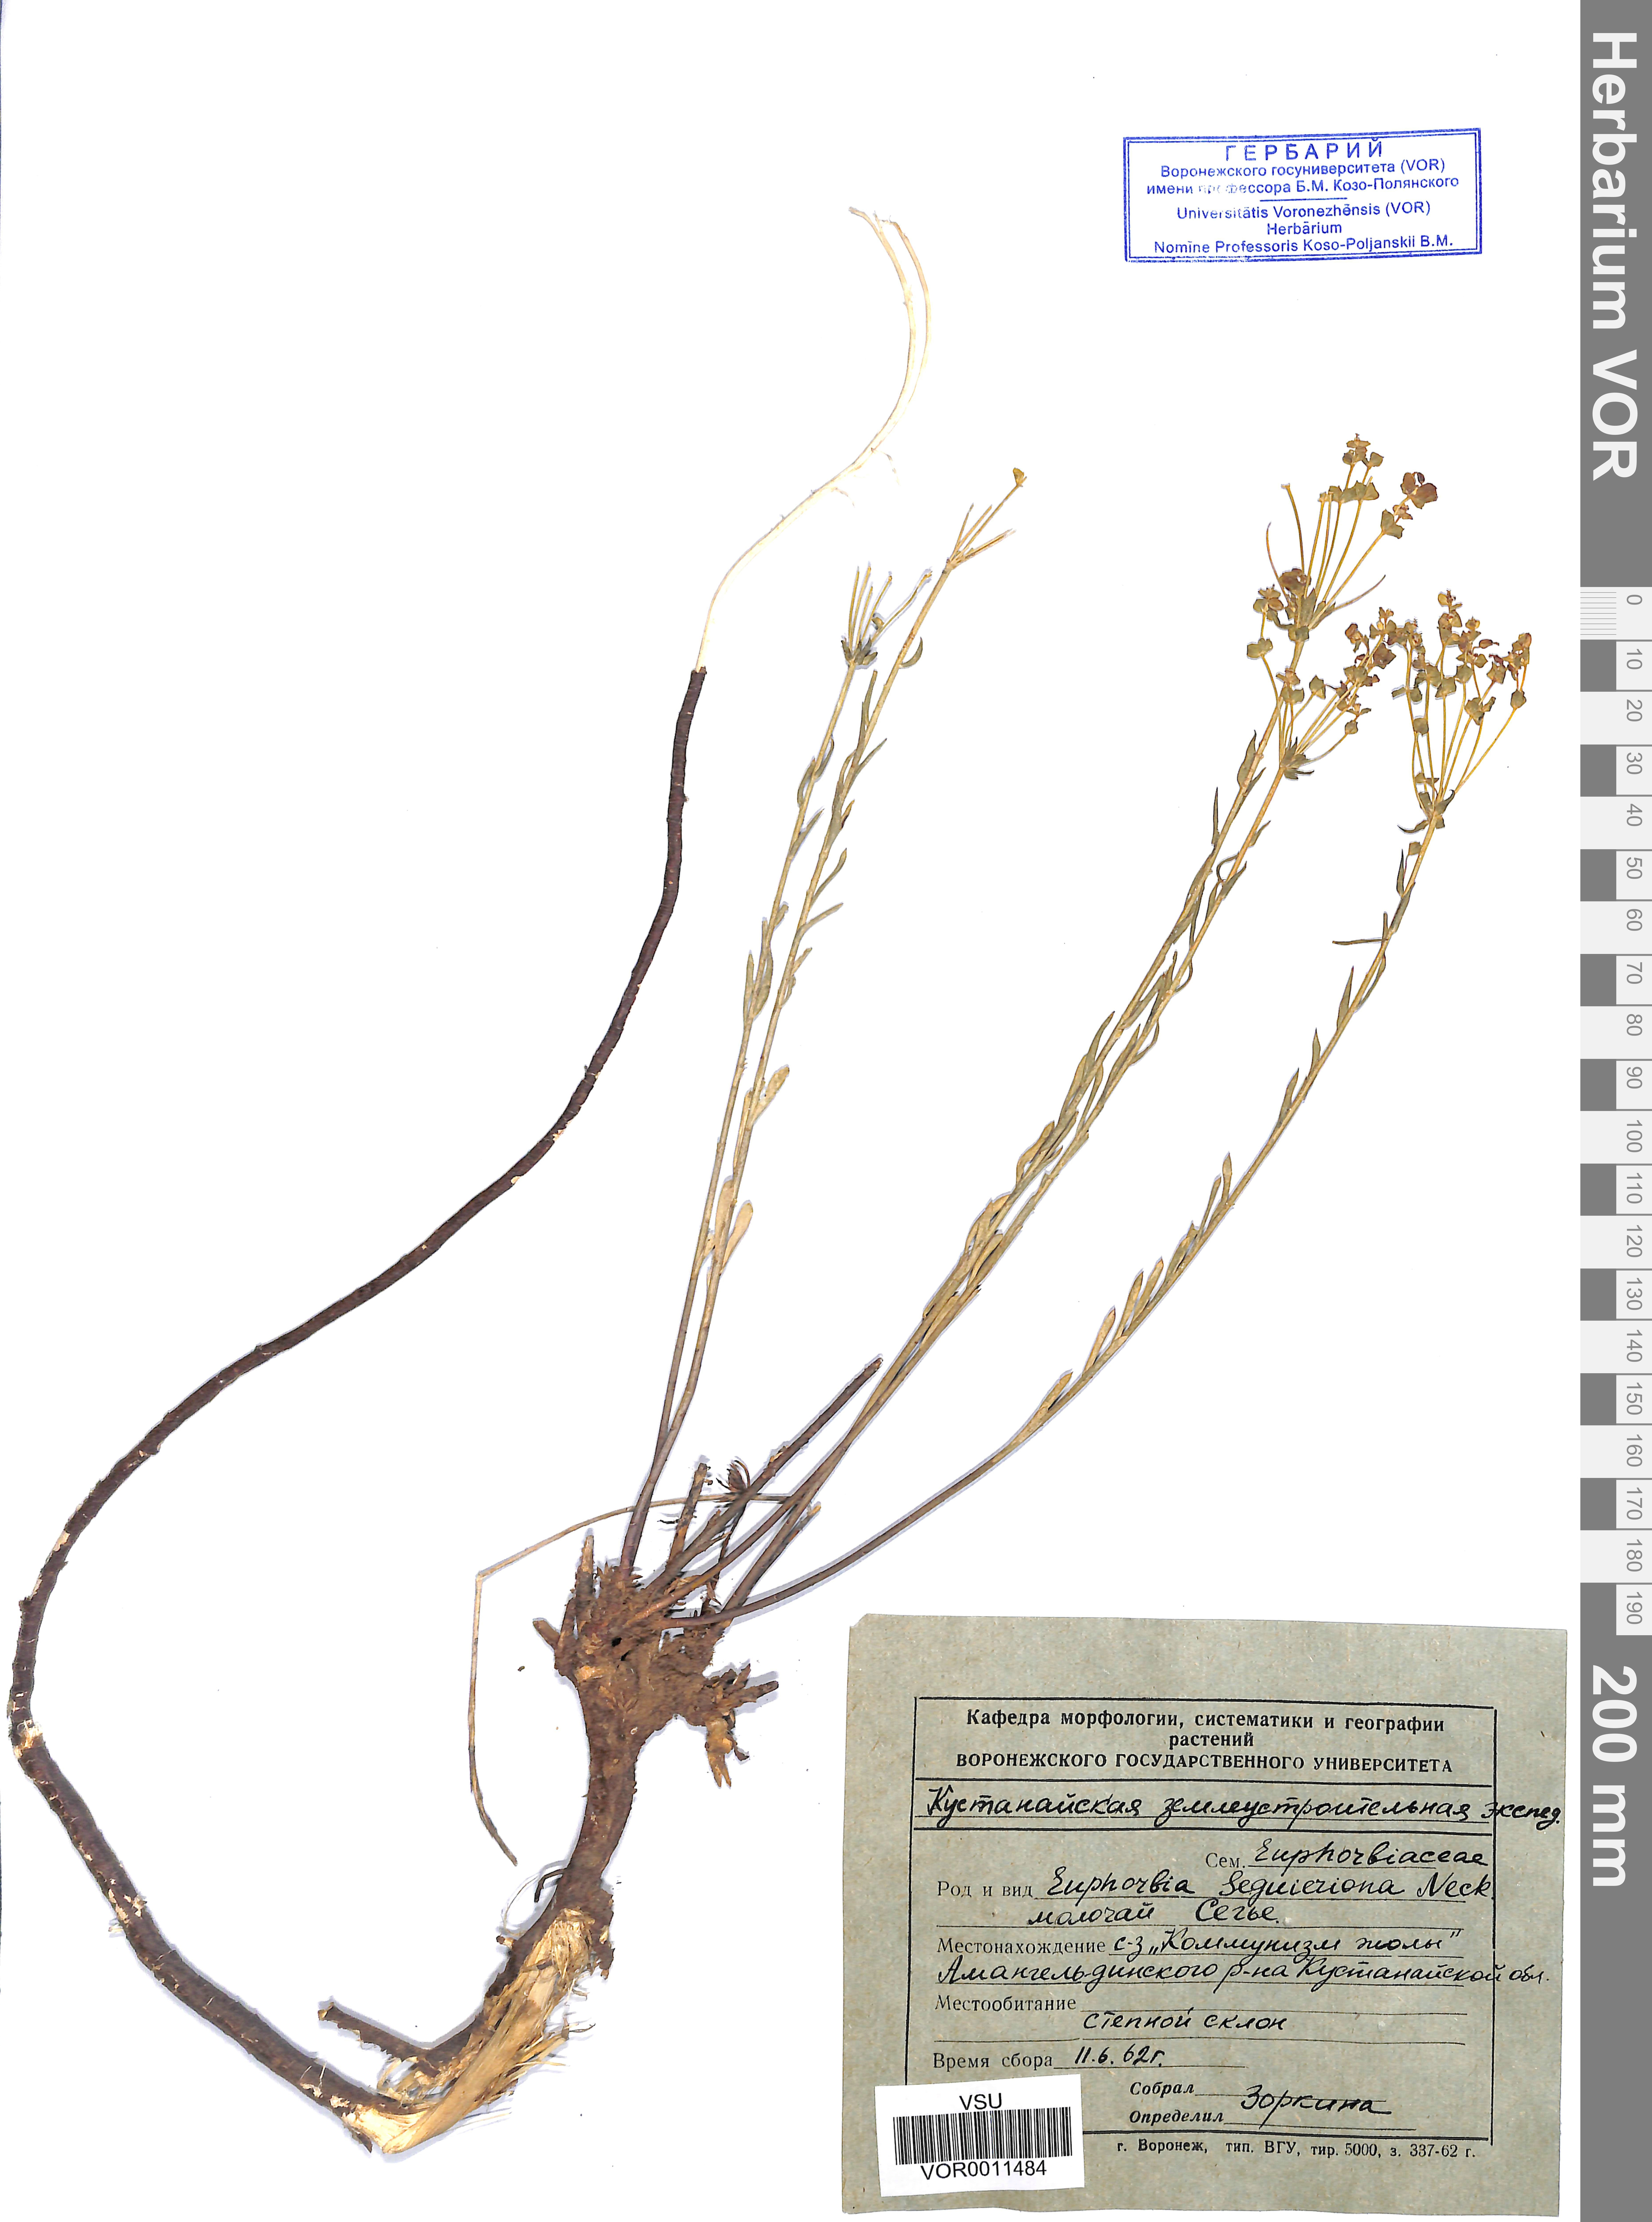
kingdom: Plantae
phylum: Tracheophyta
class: Magnoliopsida
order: Malpighiales
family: Euphorbiaceae
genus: Euphorbia
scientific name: Euphorbia seguieriana
